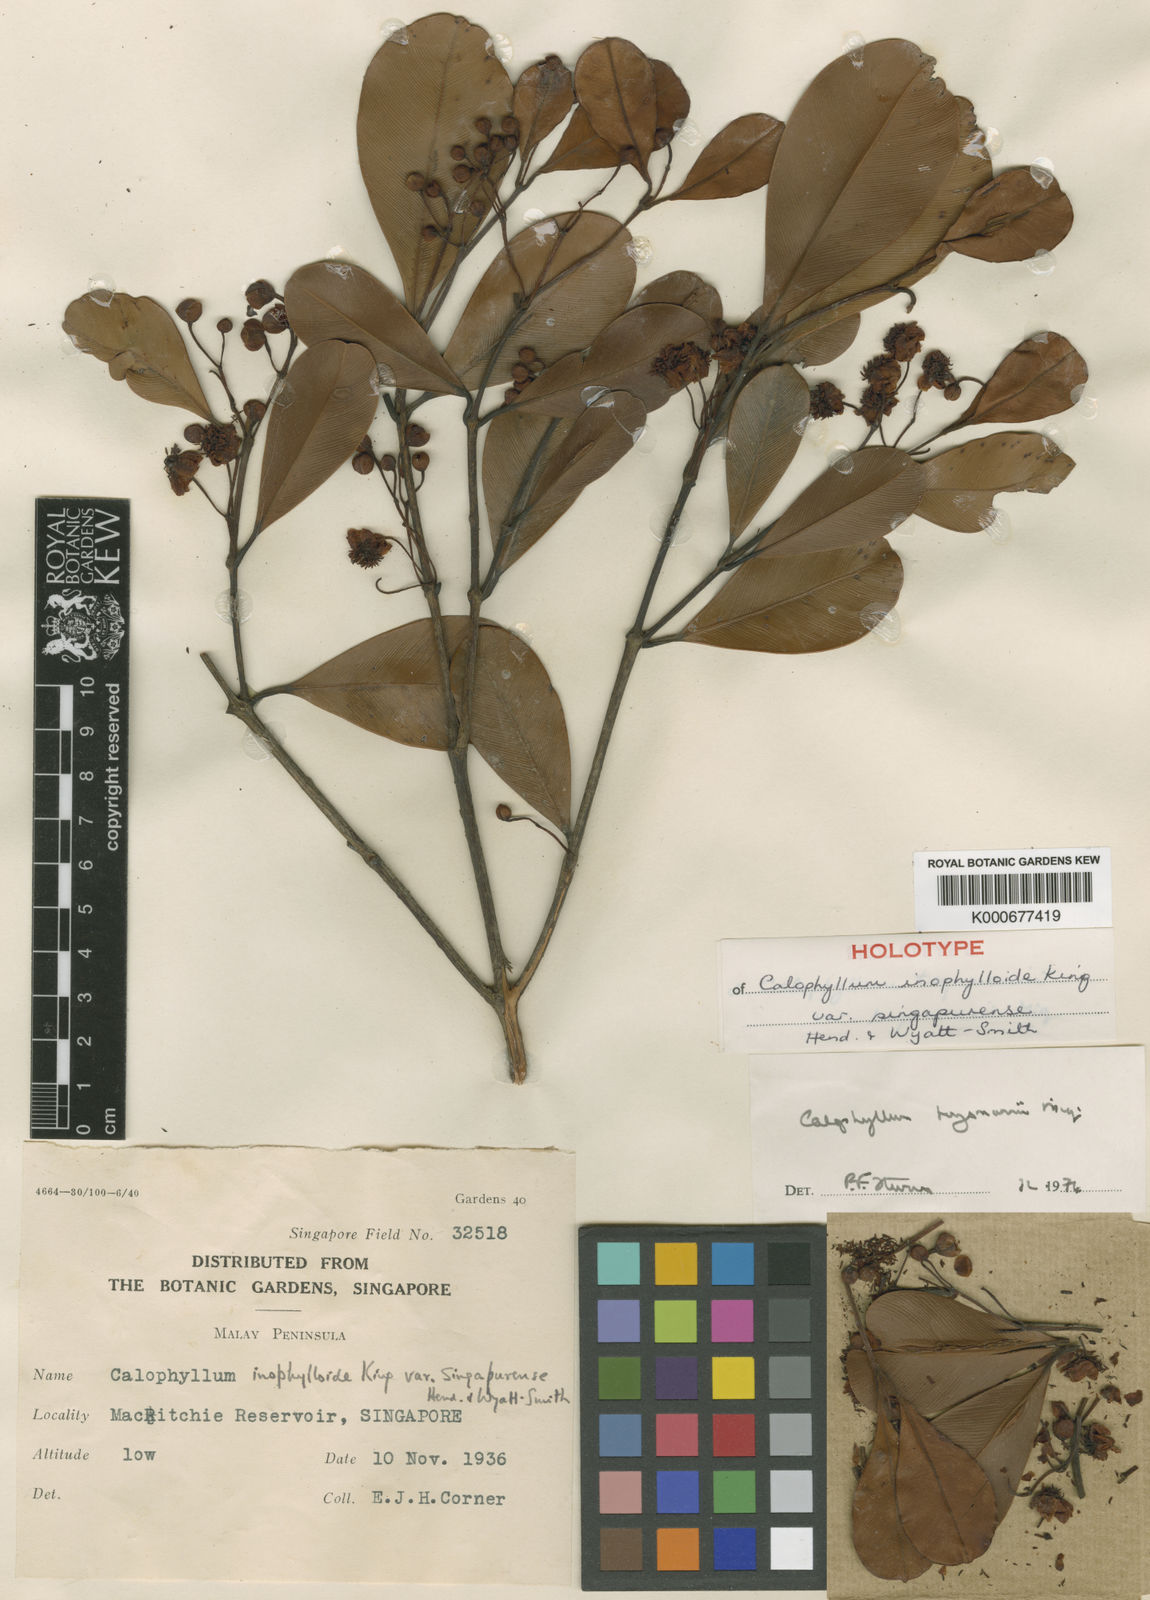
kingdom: Plantae
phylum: Tracheophyta
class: Magnoliopsida
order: Malpighiales
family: Calophyllaceae
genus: Calophyllum
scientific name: Calophyllum teysmannii
